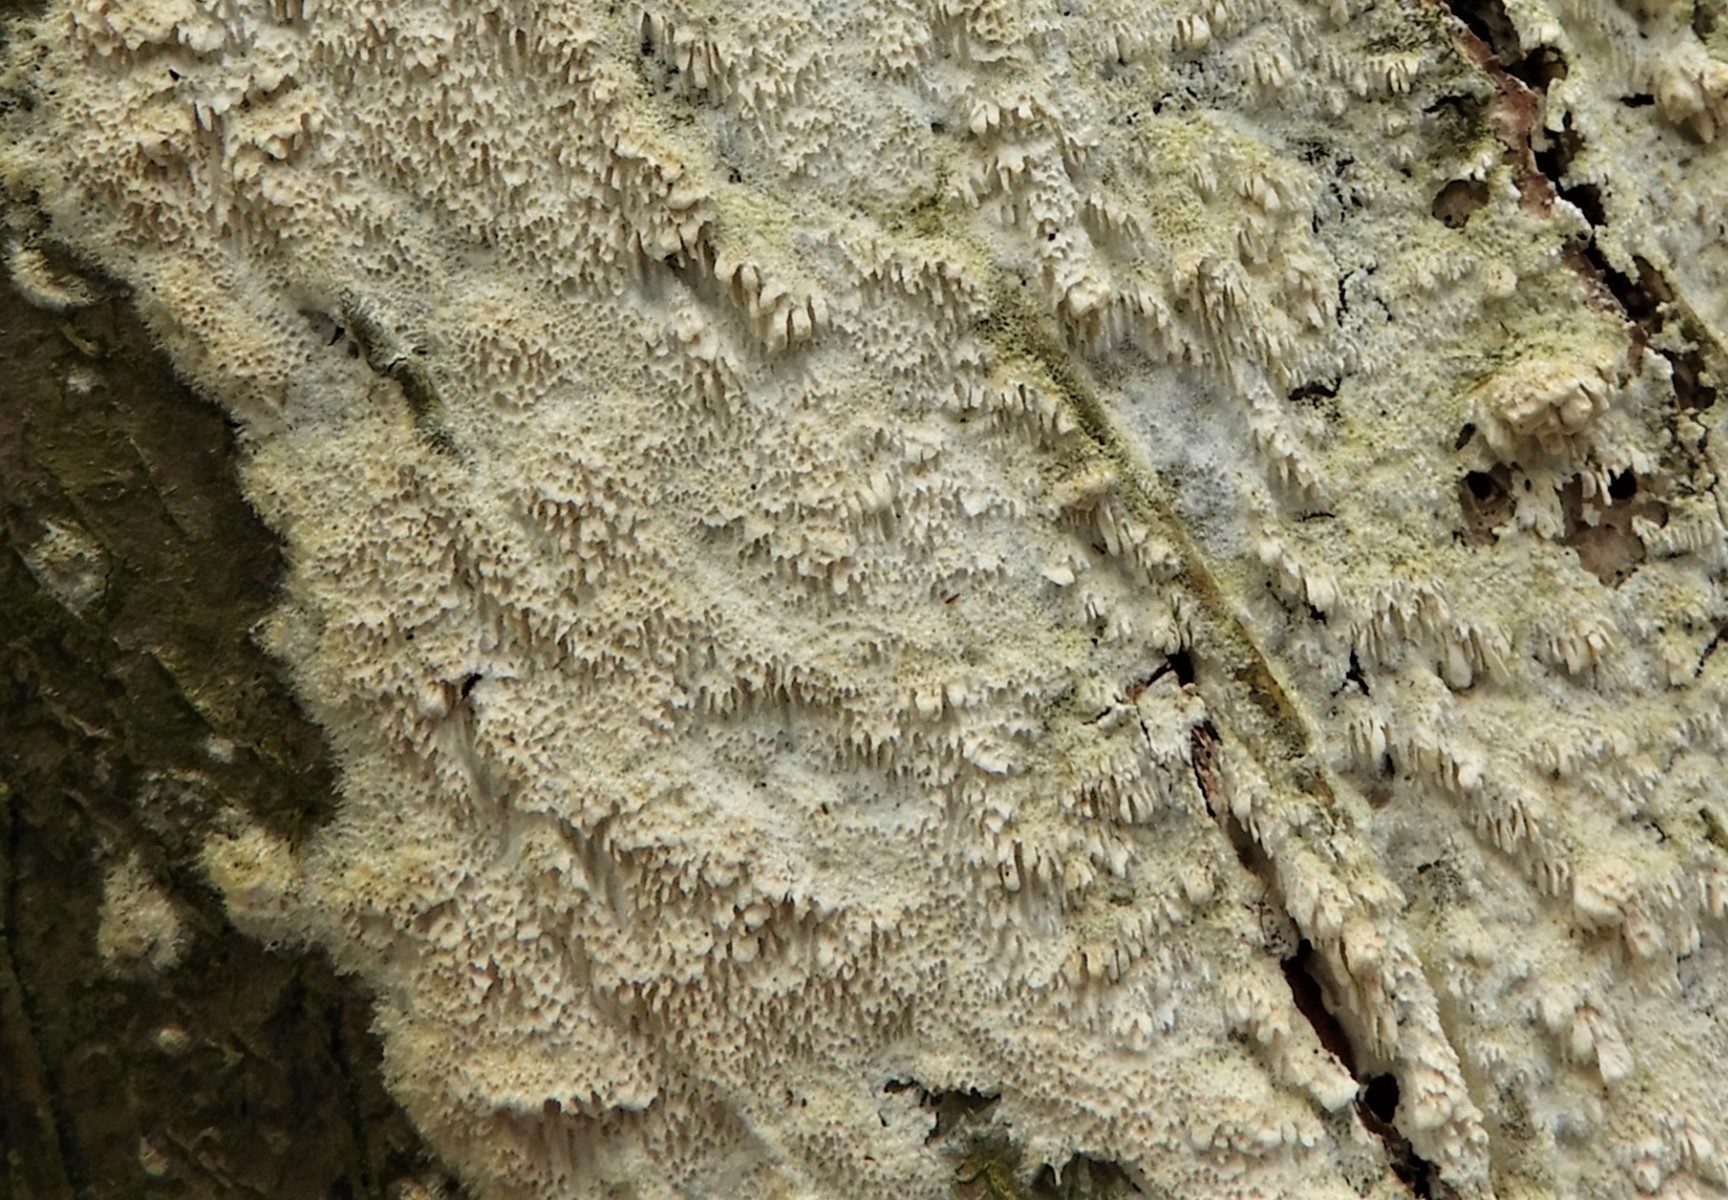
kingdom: Fungi
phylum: Basidiomycota
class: Agaricomycetes
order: Hymenochaetales
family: Schizoporaceae
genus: Schizopora
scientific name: Schizopora paradoxa
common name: hvid tandsvamp
